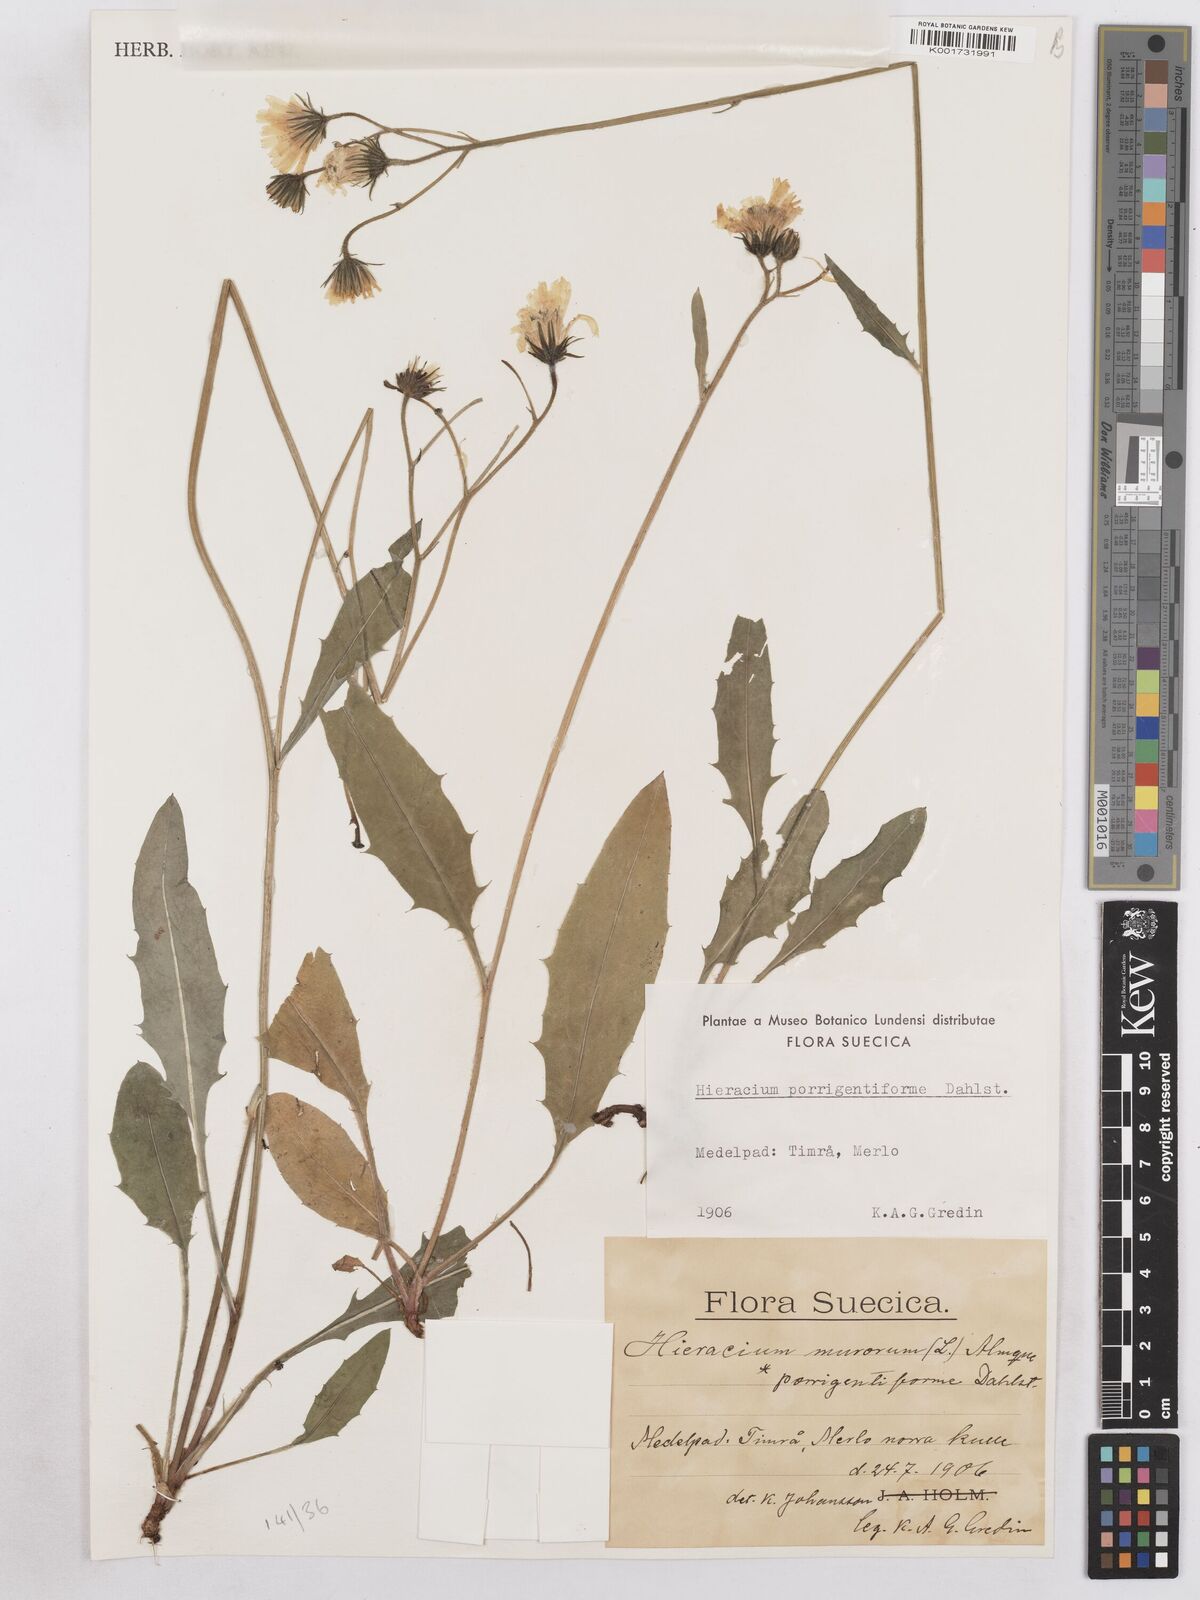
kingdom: Plantae
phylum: Tracheophyta
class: Magnoliopsida
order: Asterales
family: Asteraceae
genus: Hieracium
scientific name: Hieracium diaphanoides
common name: Fine-bracted hawkweed
